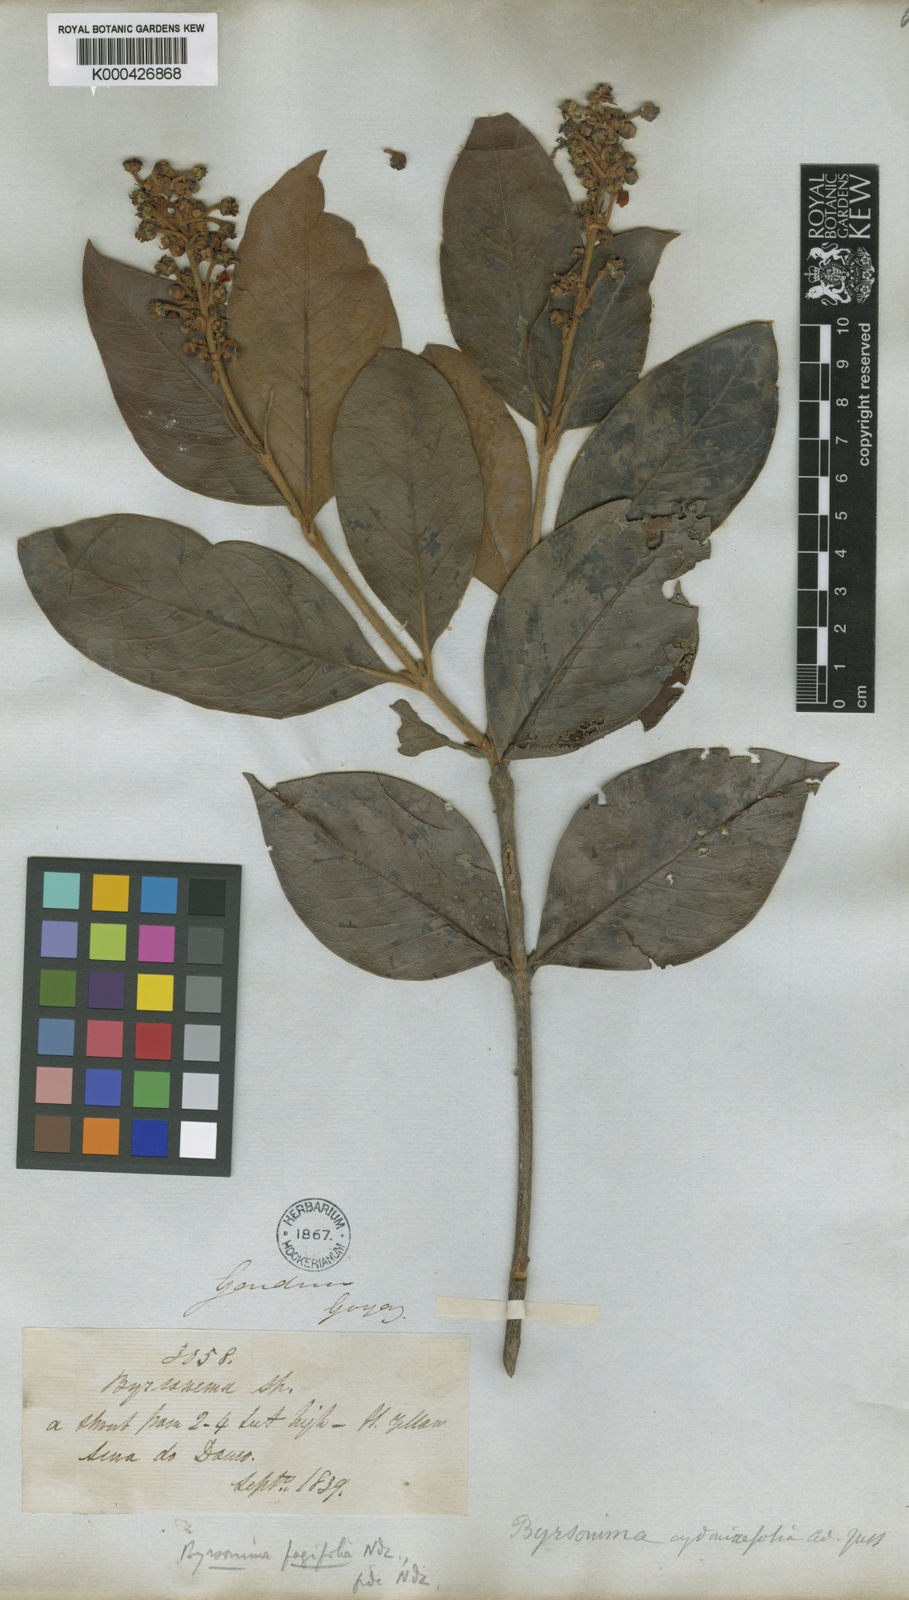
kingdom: Plantae
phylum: Tracheophyta
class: Magnoliopsida
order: Malpighiales
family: Malpighiaceae
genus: Byrsonima
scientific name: Byrsonima crassifolia
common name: Golden spoon
